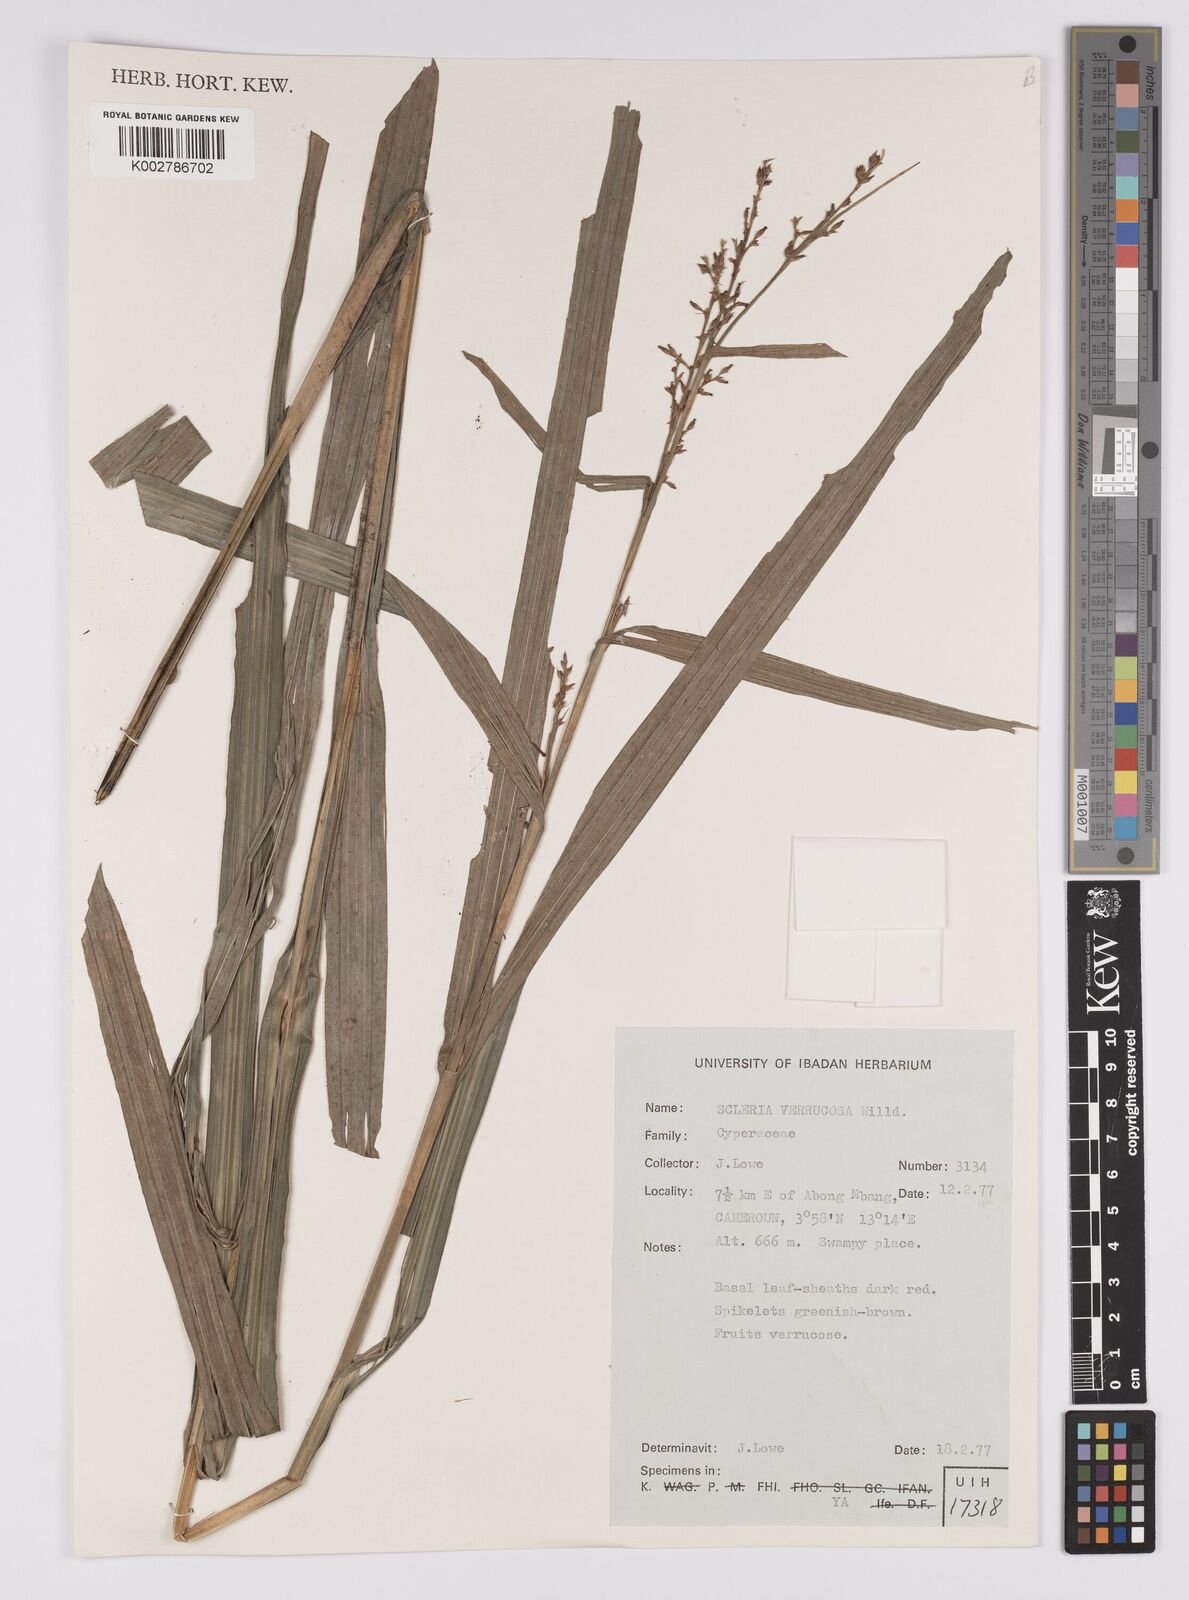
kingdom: Plantae
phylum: Tracheophyta
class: Liliopsida
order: Poales
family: Cyperaceae
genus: Scleria
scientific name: Scleria verrucosa
